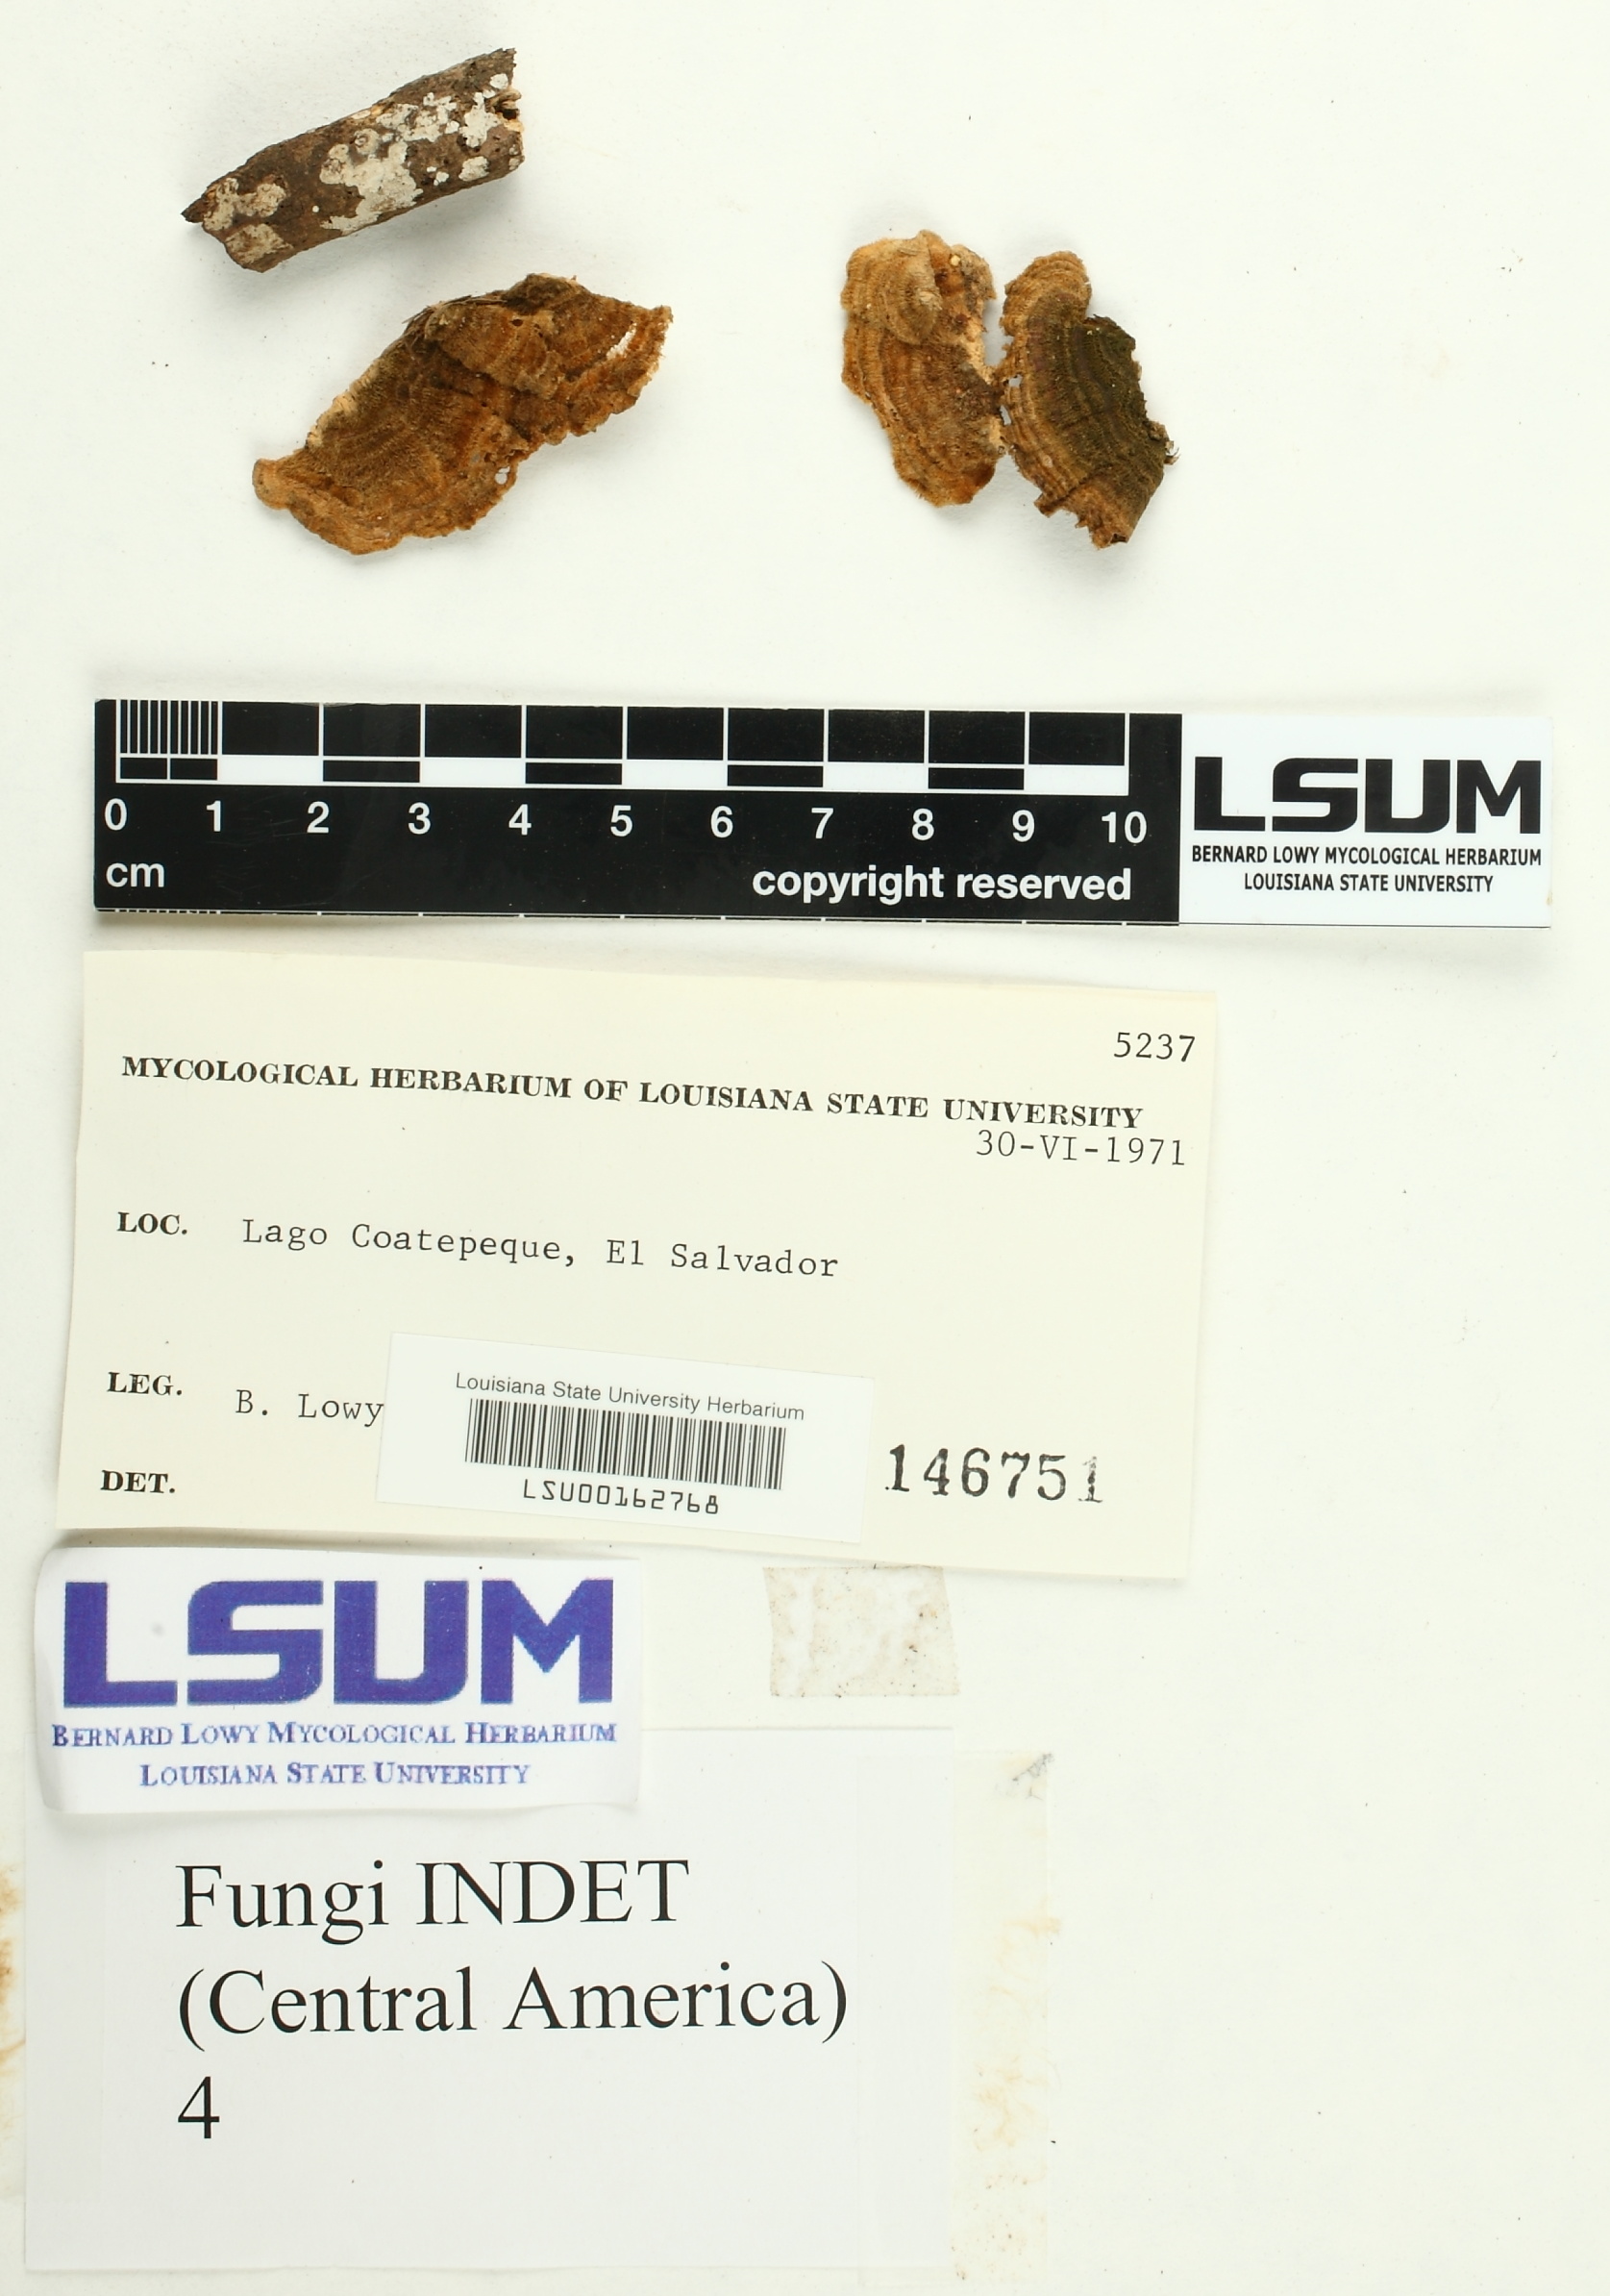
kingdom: Fungi
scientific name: Fungi
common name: Fungi
